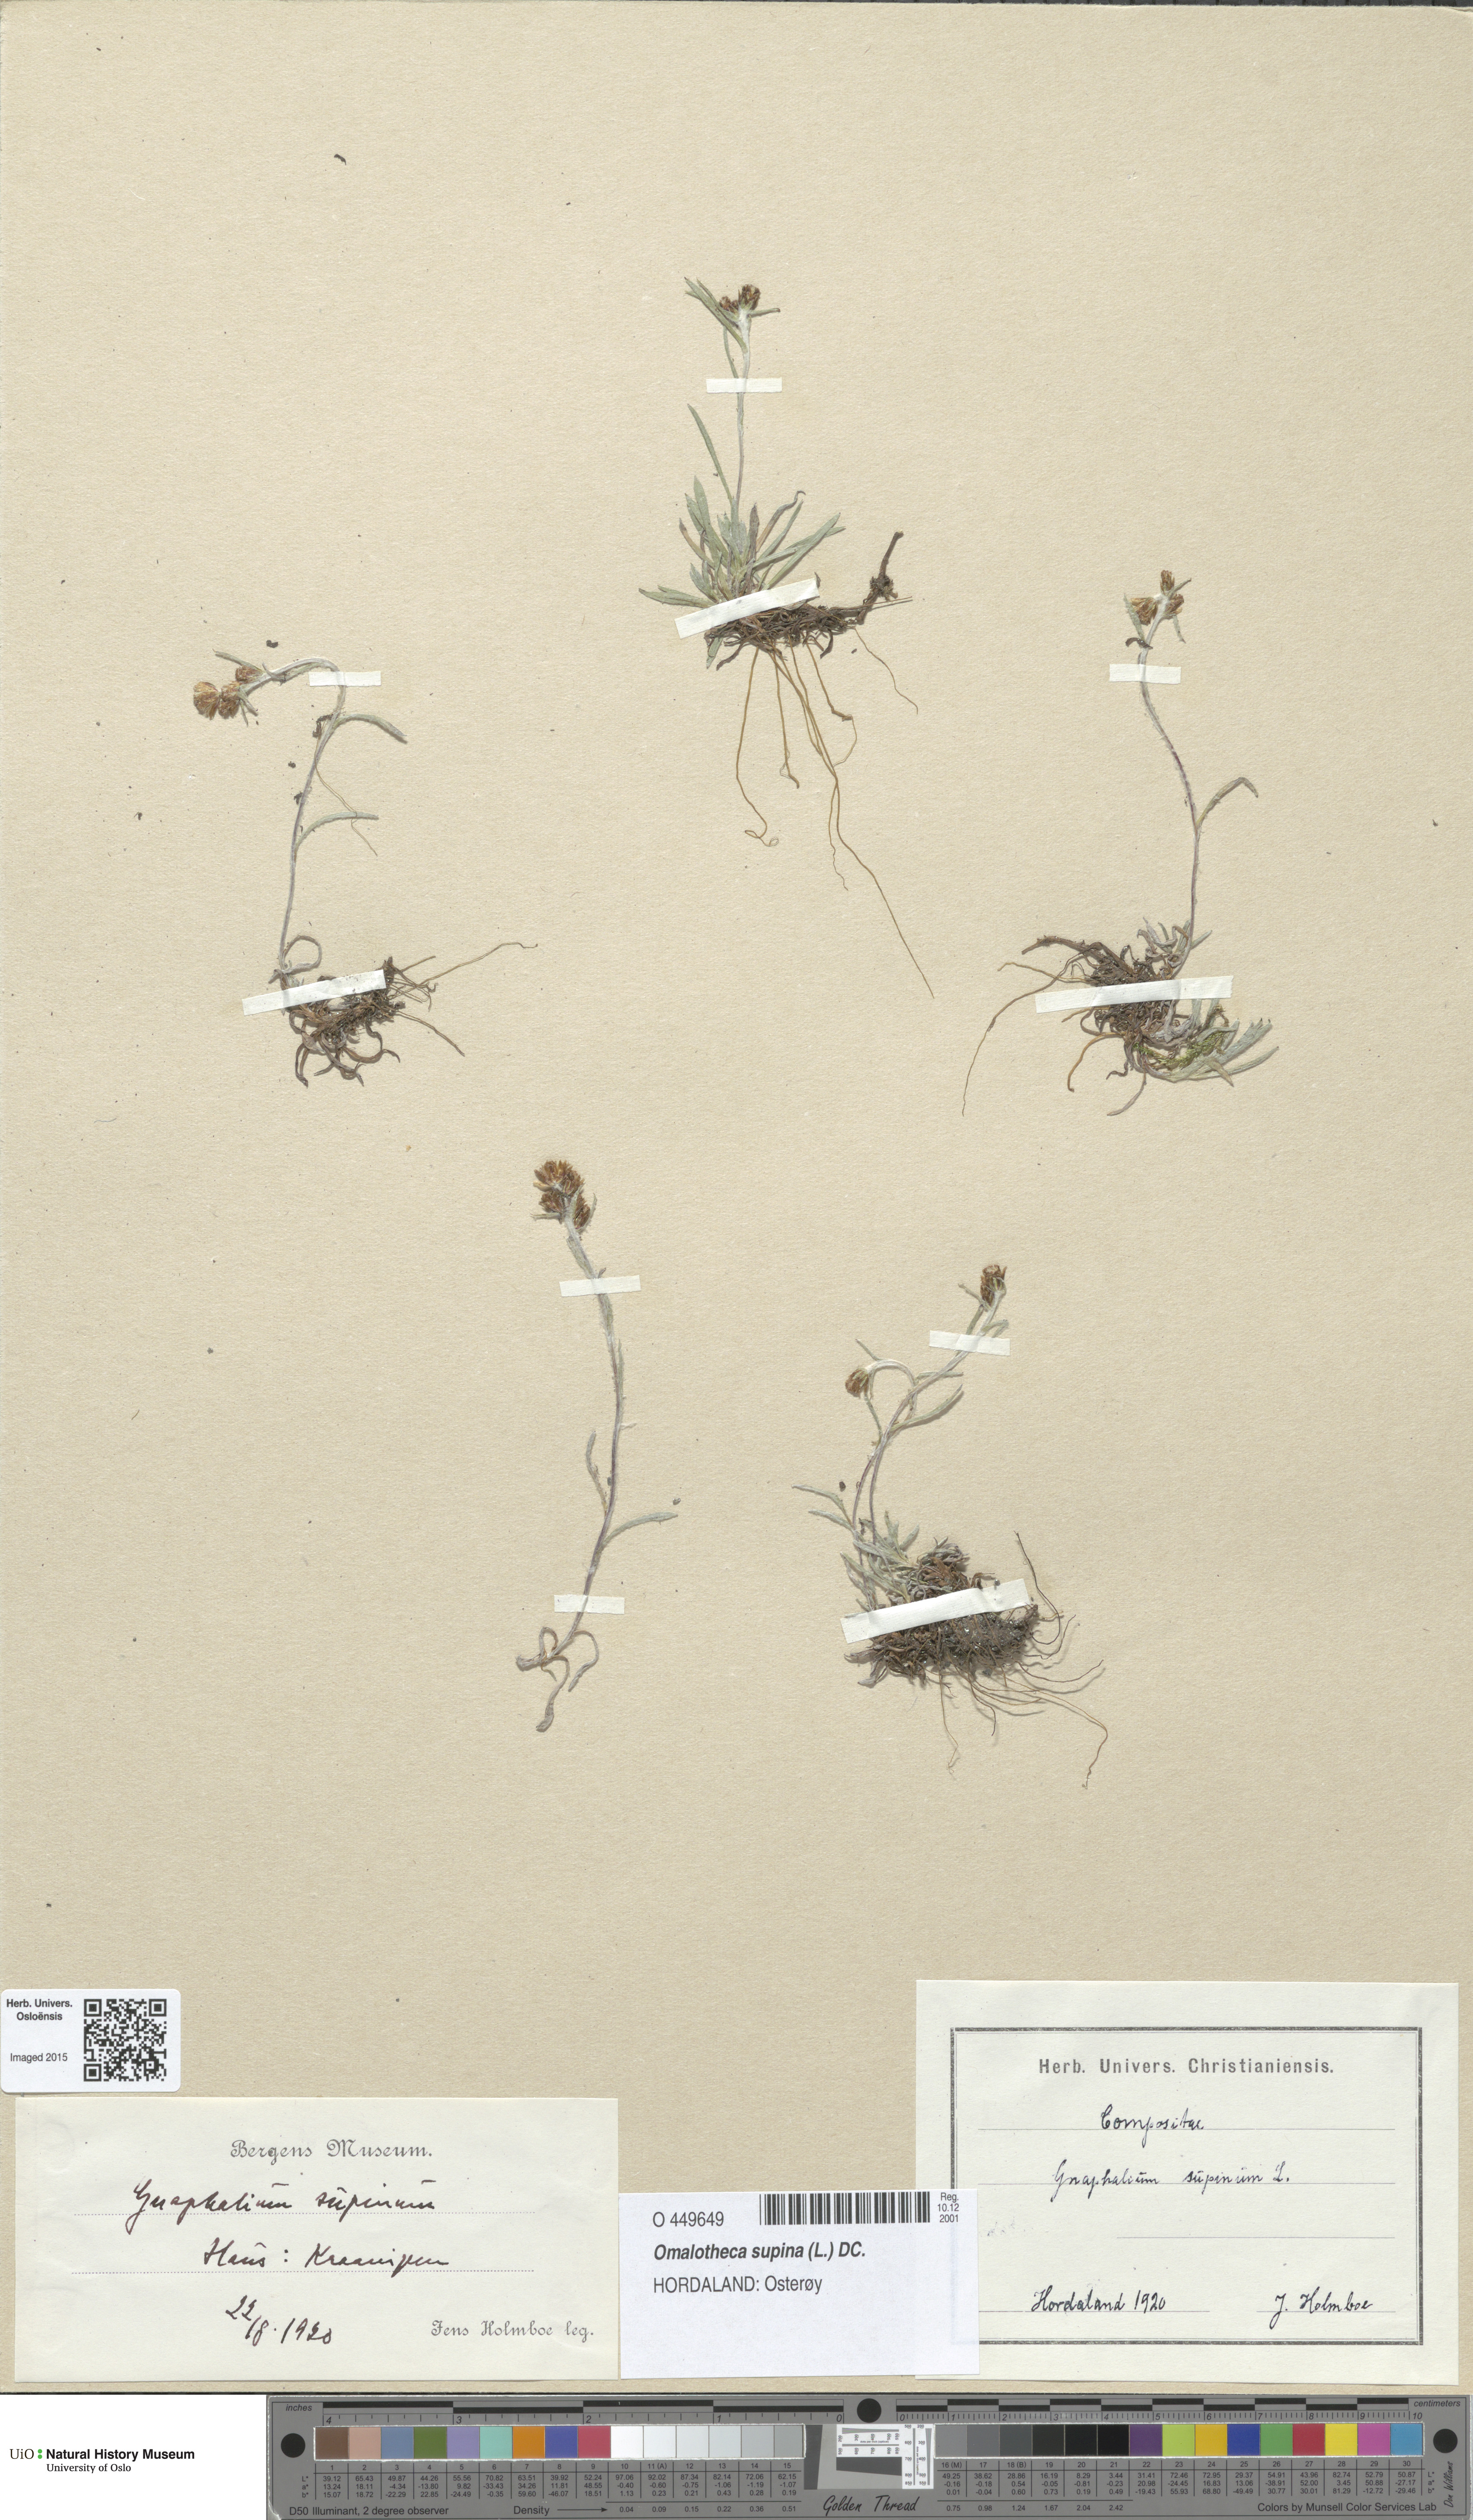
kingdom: Plantae
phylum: Tracheophyta
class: Magnoliopsida
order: Asterales
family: Asteraceae
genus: Omalotheca
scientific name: Omalotheca supina
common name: Alpine arctic-cudweed
